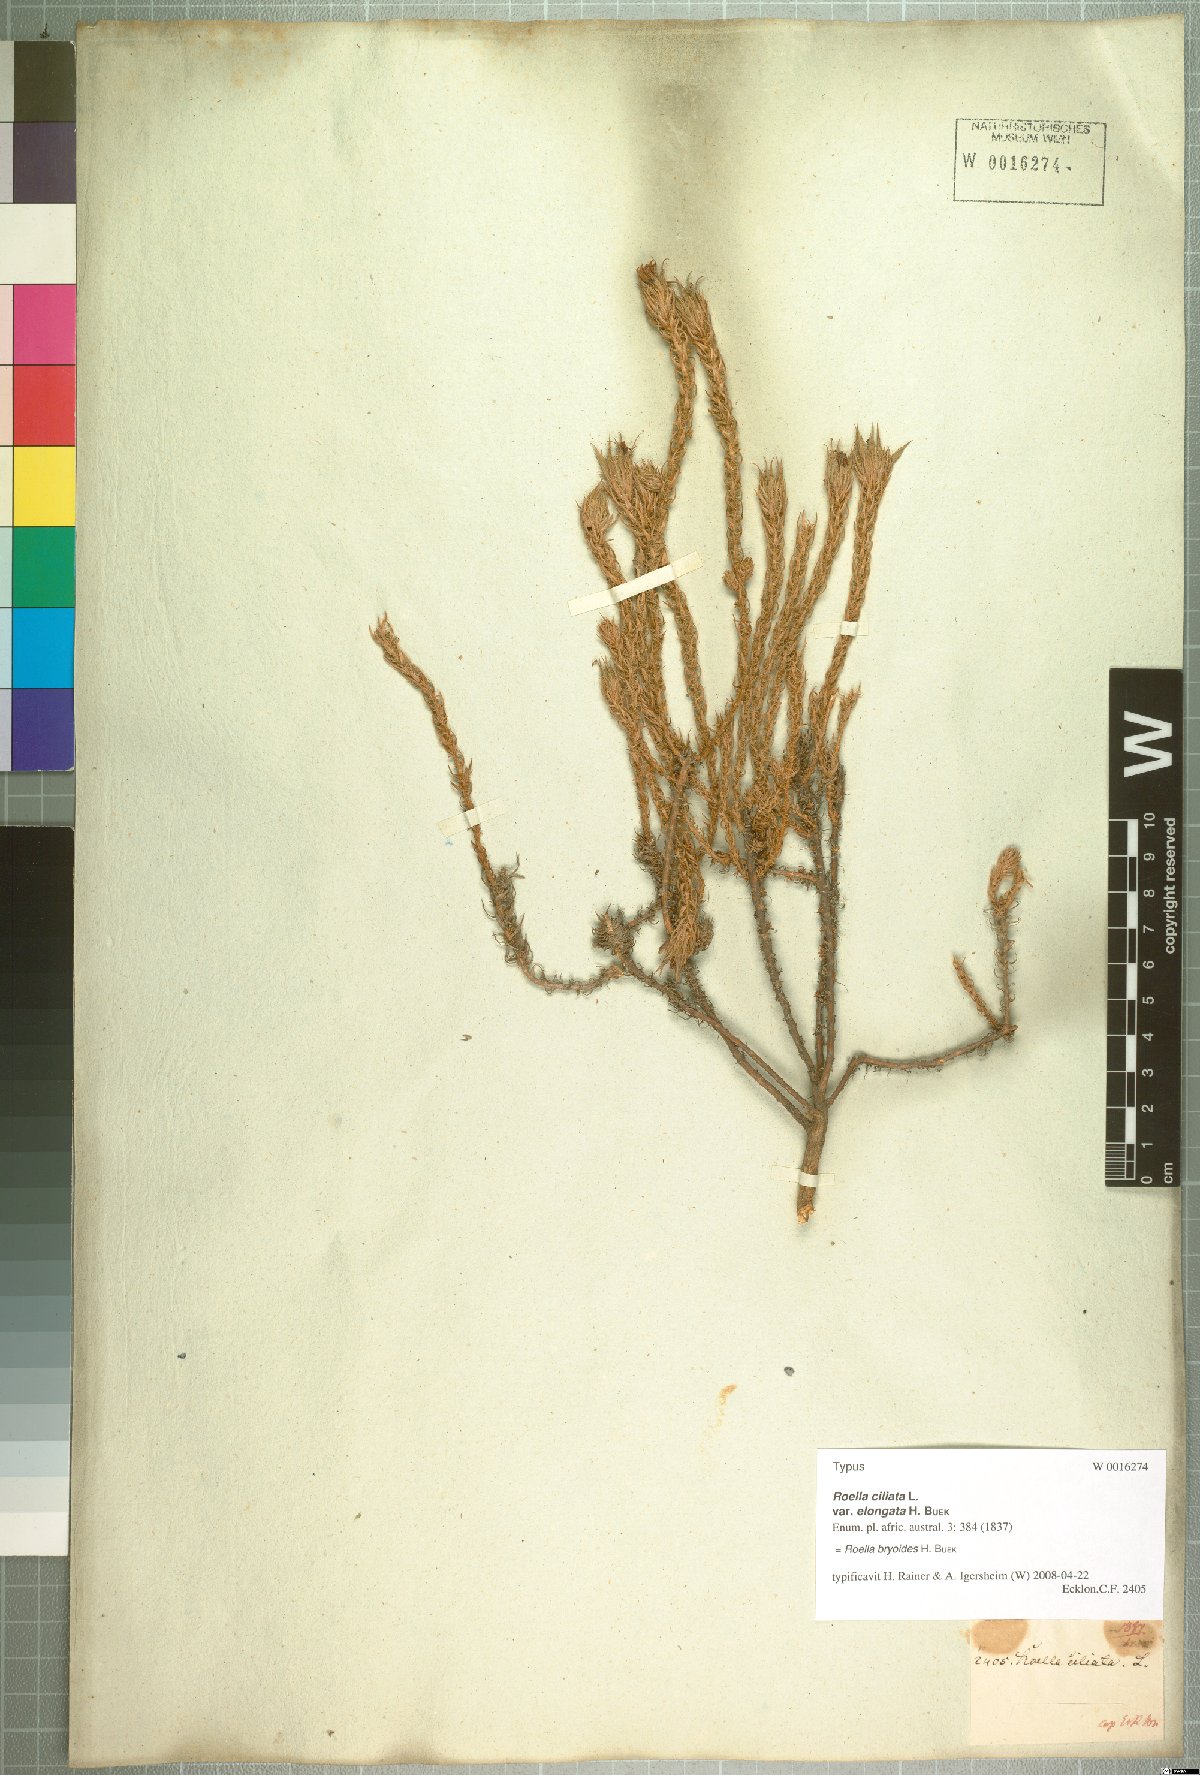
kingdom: Plantae
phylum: Tracheophyta
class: Magnoliopsida
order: Asterales
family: Campanulaceae
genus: Roella
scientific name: Roella bryoides
